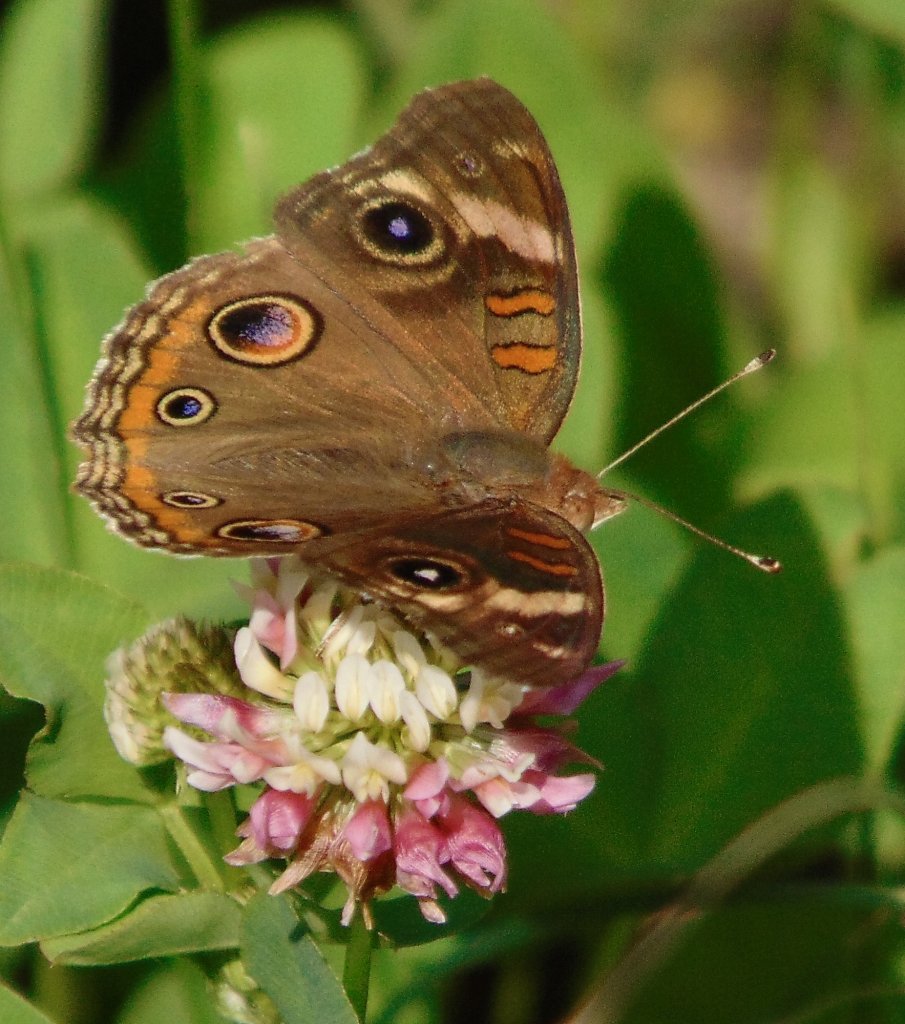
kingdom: Animalia
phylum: Arthropoda
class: Insecta
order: Lepidoptera
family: Nymphalidae
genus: Junonia
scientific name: Junonia coenia
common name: Common Buckeye
